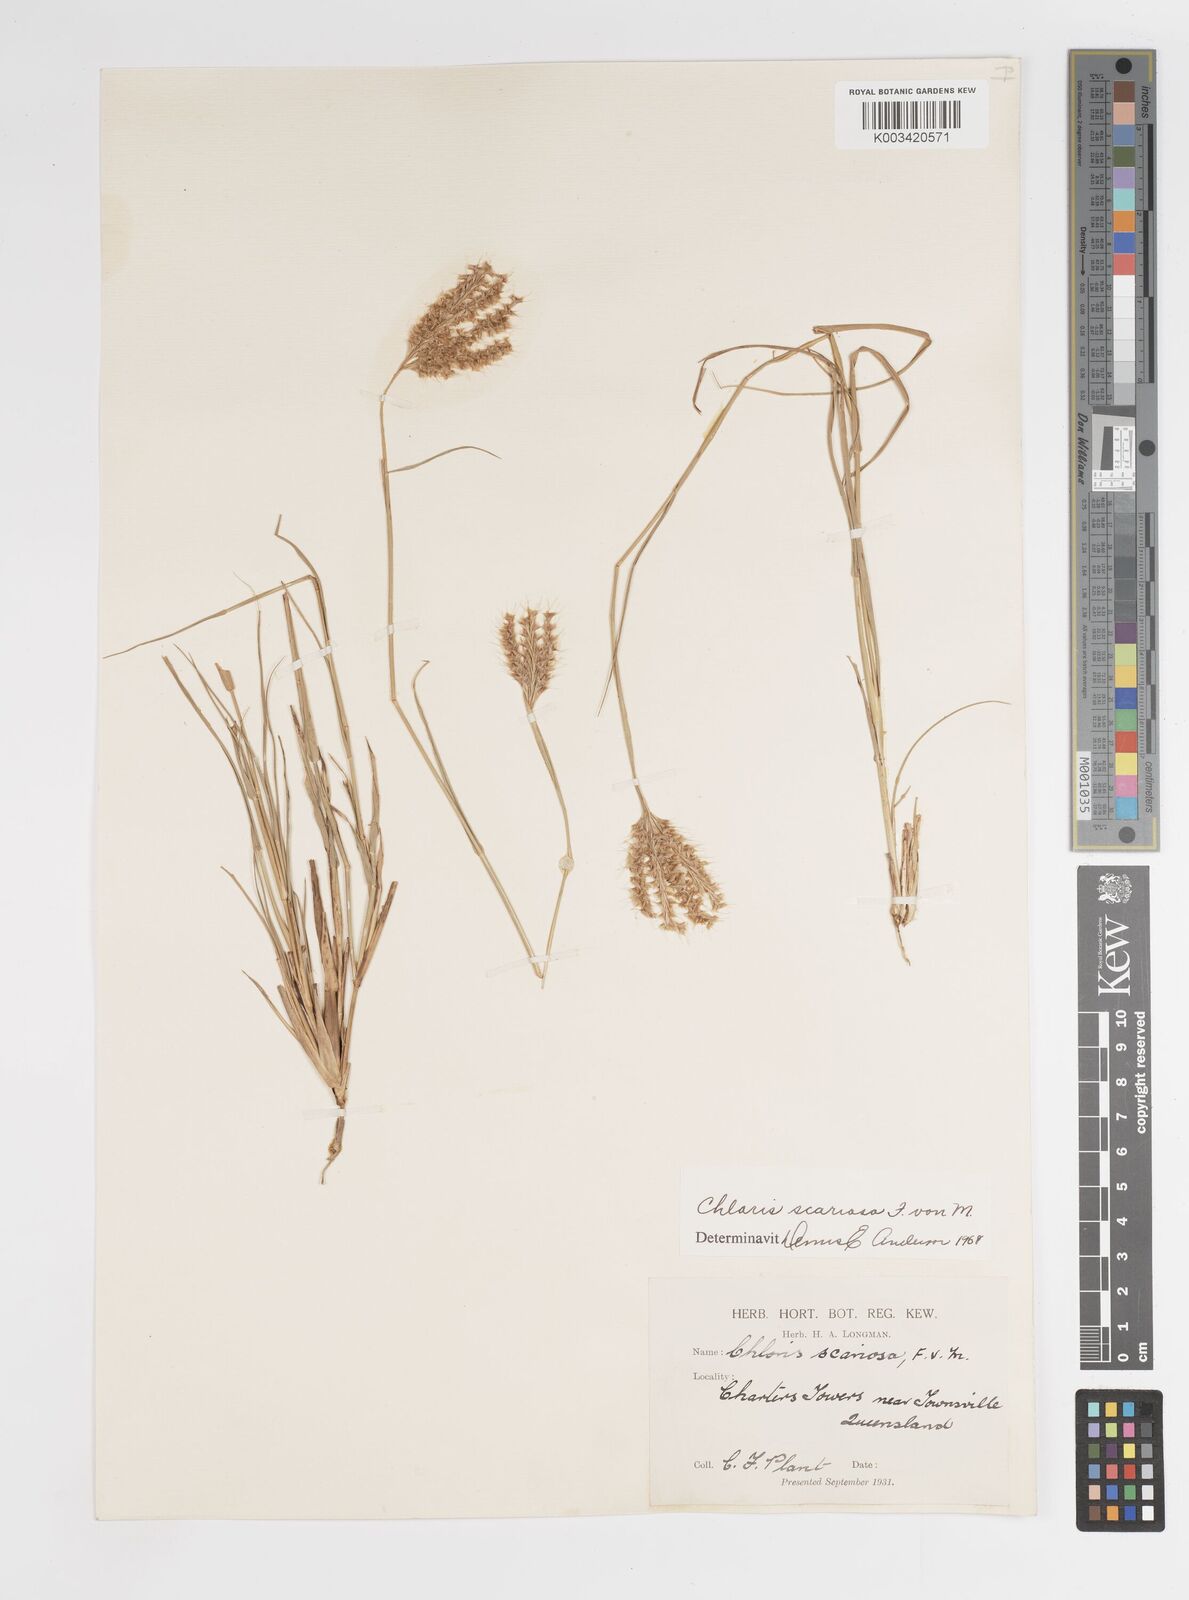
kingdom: Plantae
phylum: Tracheophyta
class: Liliopsida
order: Poales
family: Poaceae
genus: Oxychloris
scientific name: Oxychloris scariosa
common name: Winged windmill grass
